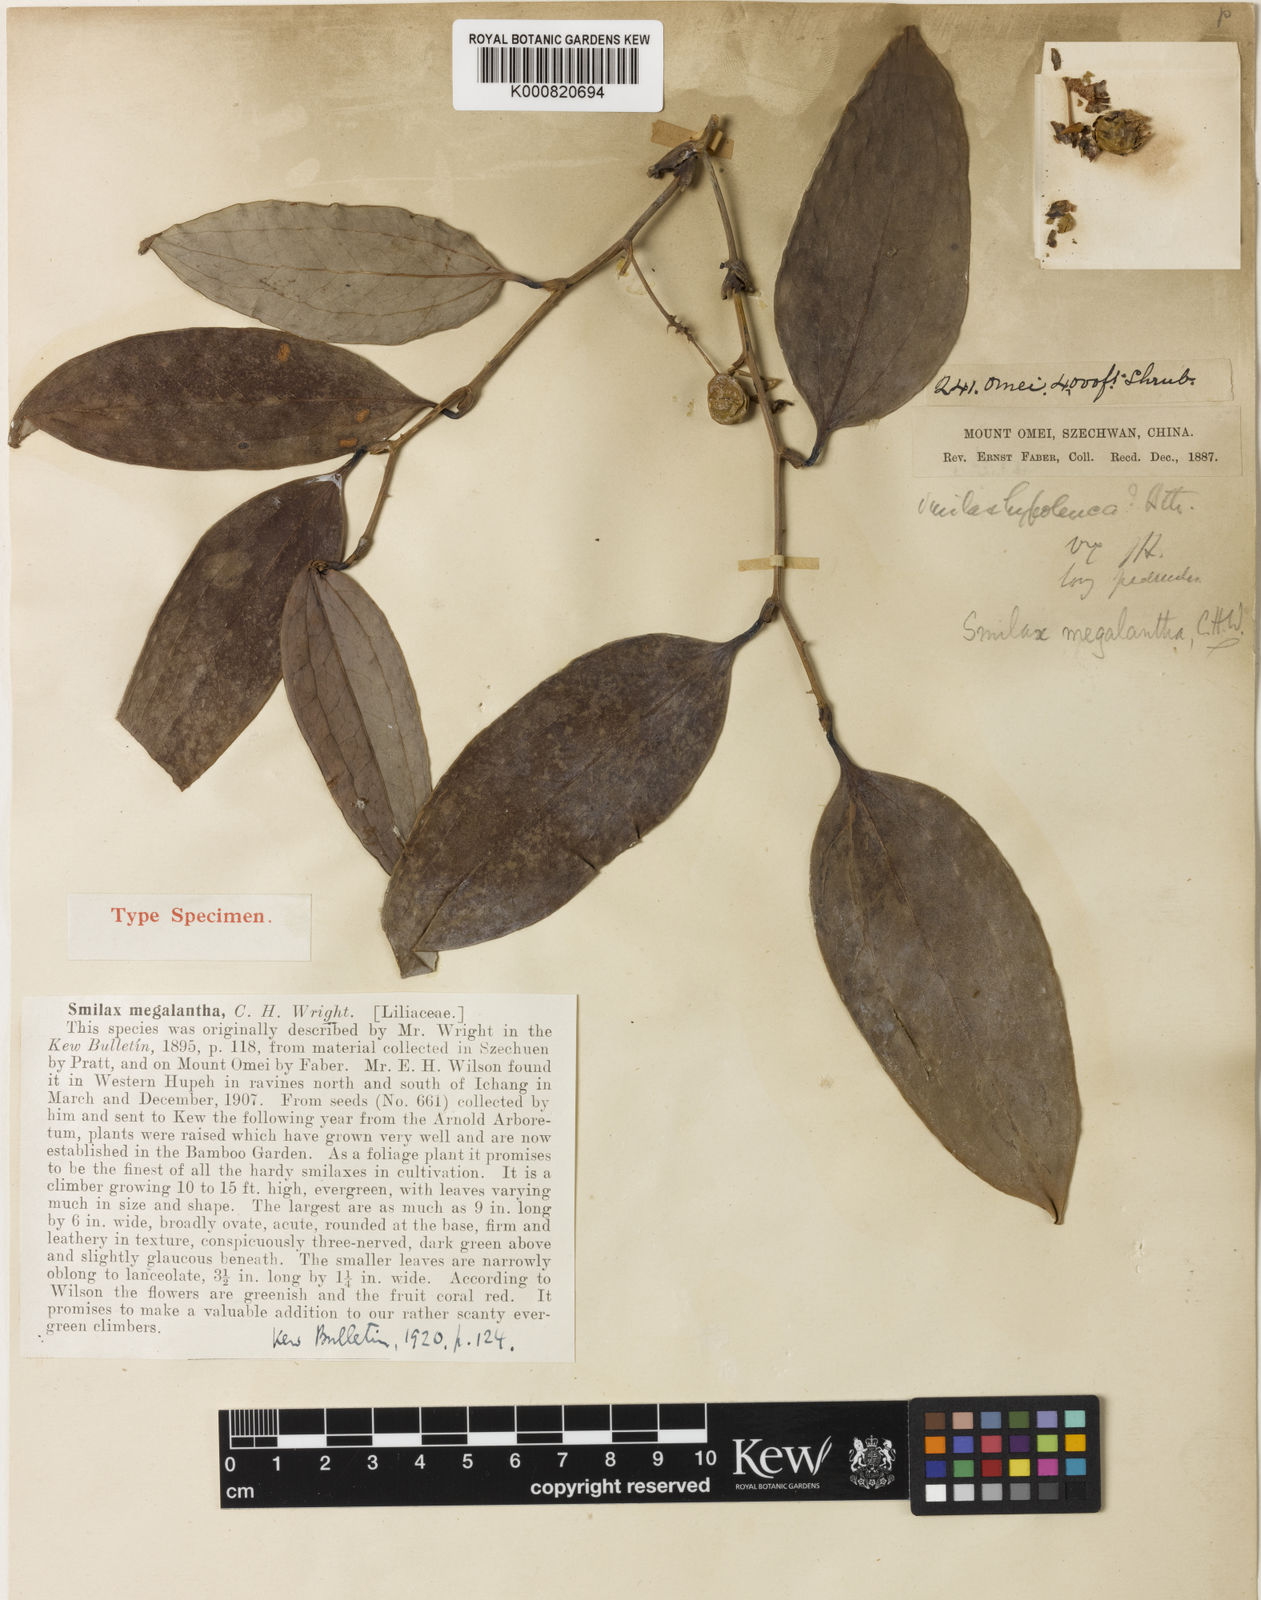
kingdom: Plantae
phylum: Tracheophyta
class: Liliopsida
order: Liliales
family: Smilacaceae
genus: Smilax
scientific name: Smilax megalantha
